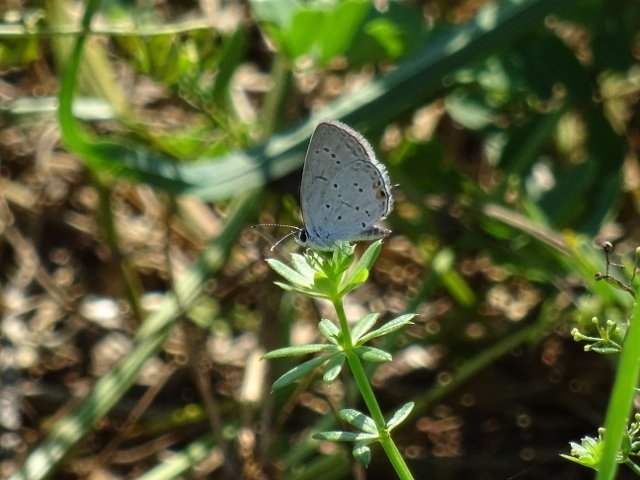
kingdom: Animalia
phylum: Arthropoda
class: Insecta
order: Lepidoptera
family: Lycaenidae
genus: Elkalyce
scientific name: Elkalyce comyntas
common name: Eastern Tailed-Blue
